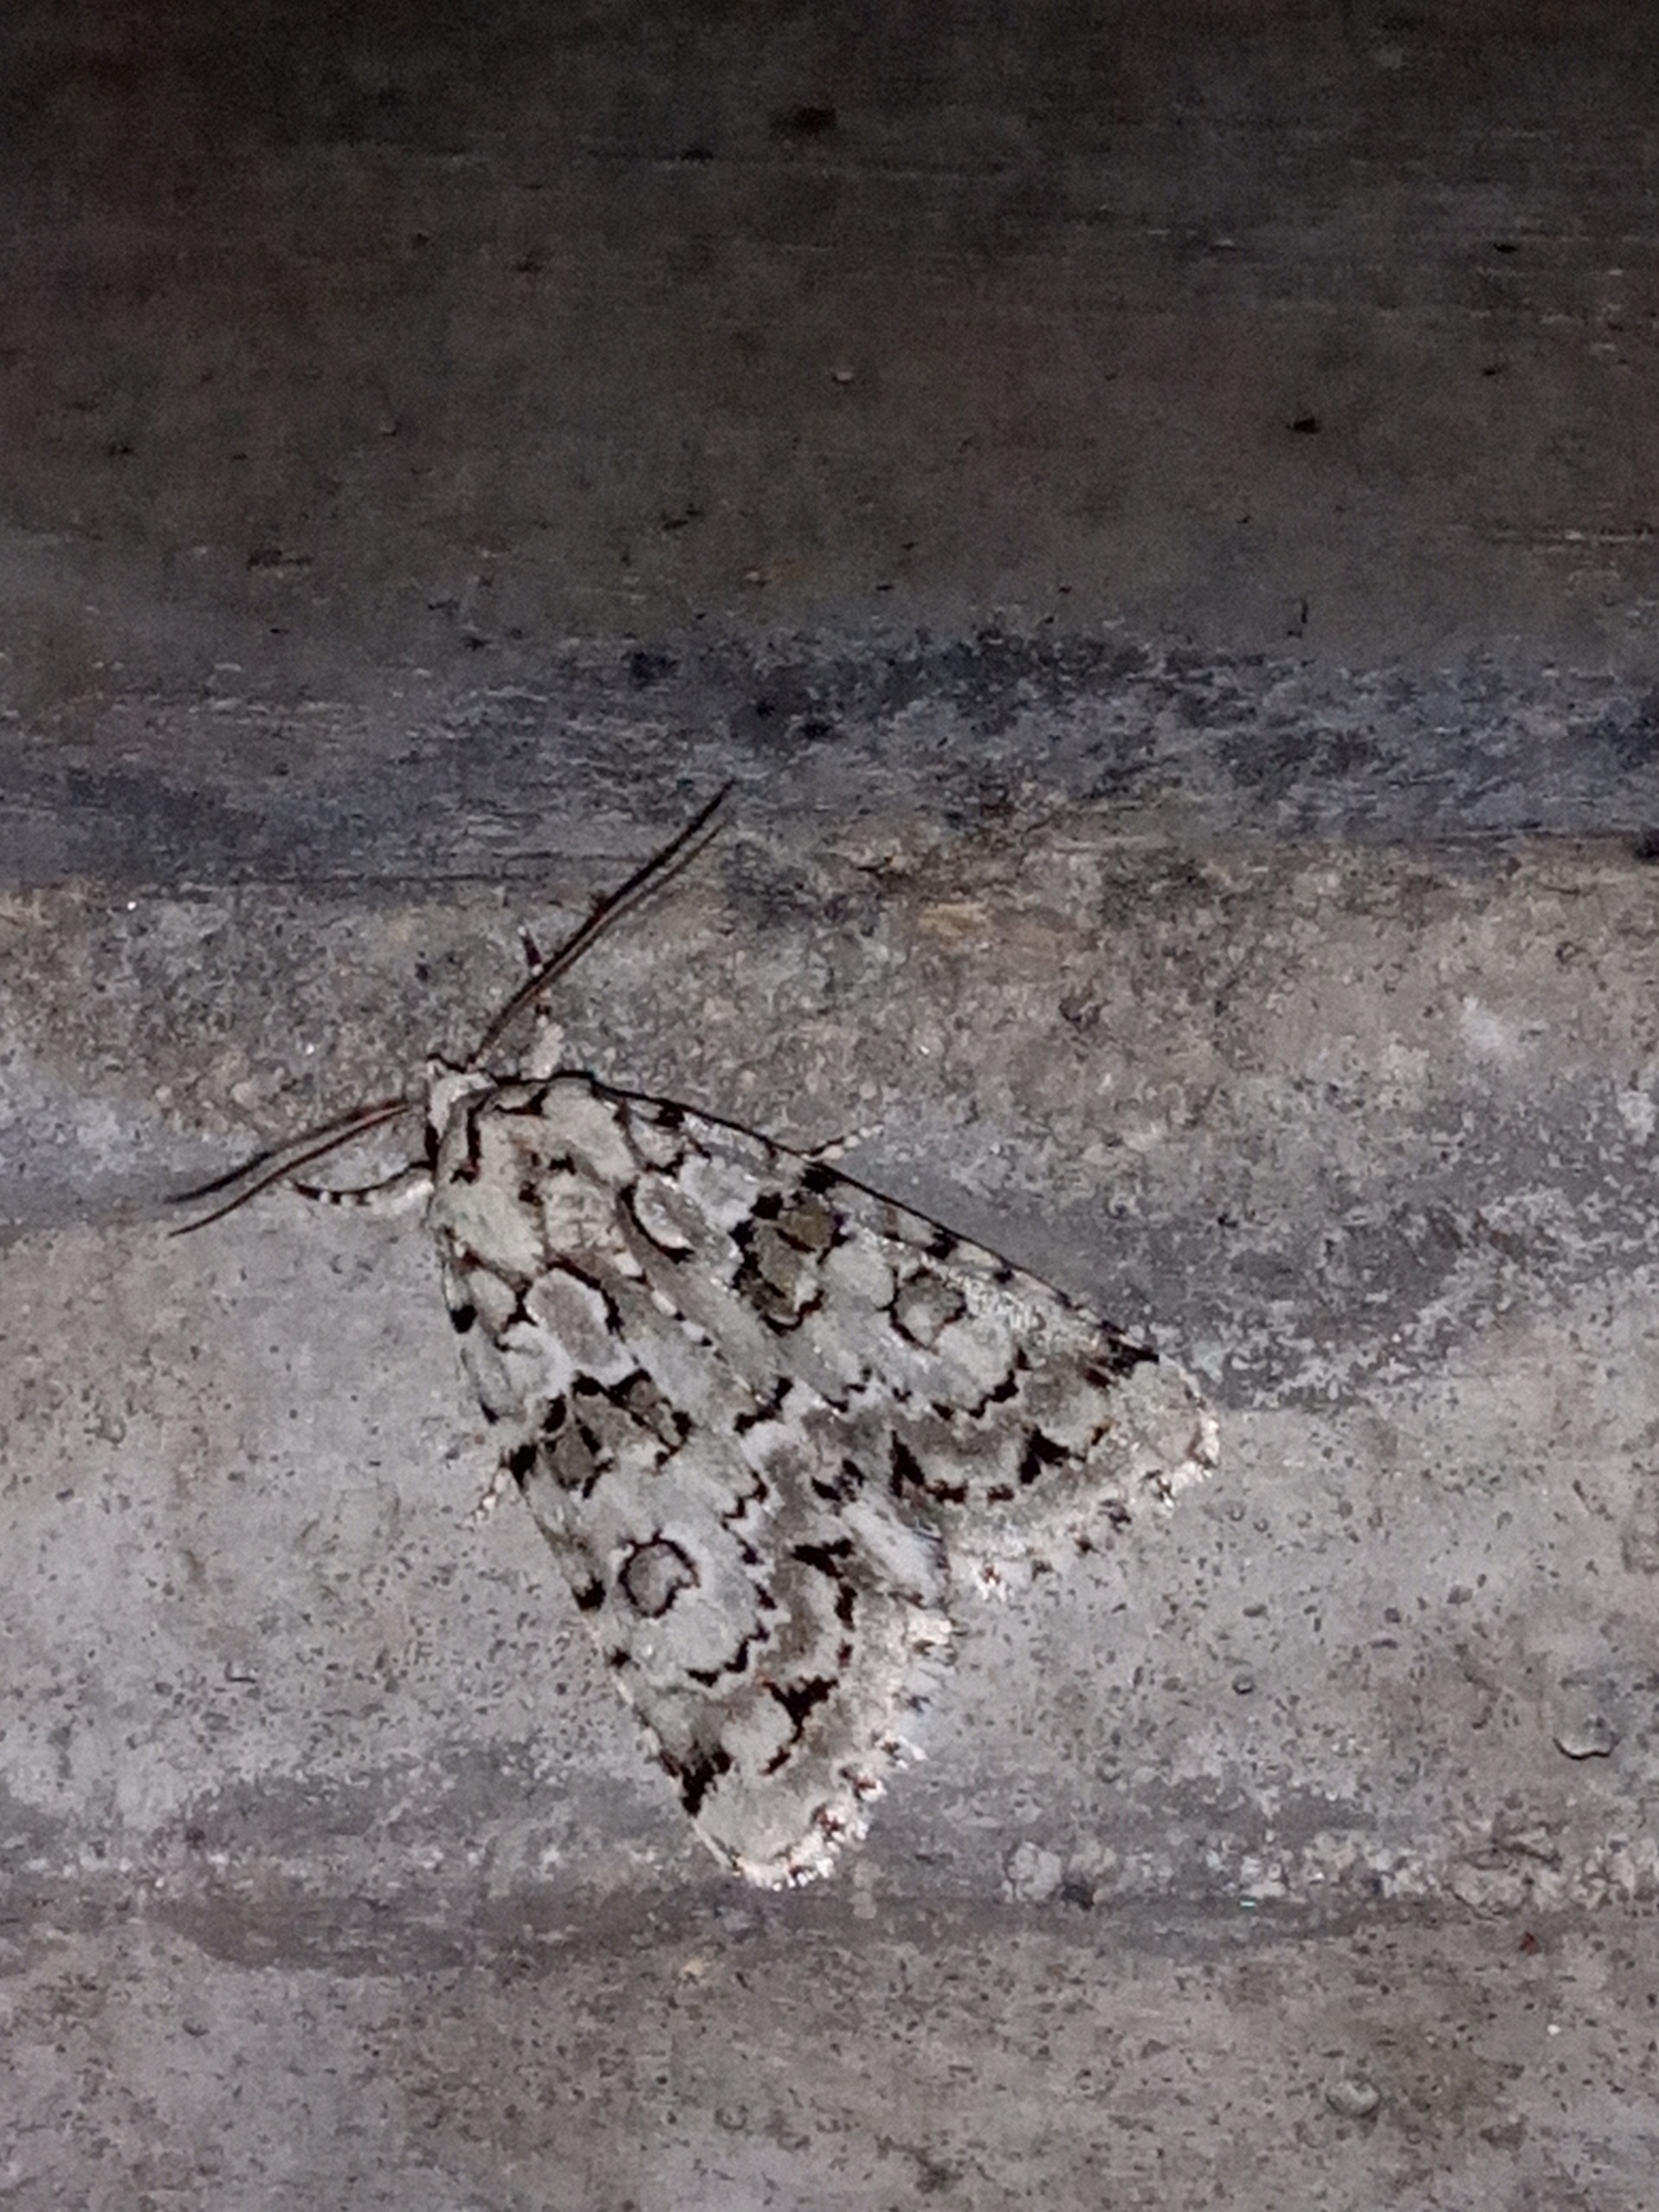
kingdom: Animalia
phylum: Arthropoda
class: Insecta
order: Lepidoptera
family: Noctuidae
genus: Nyctobrya
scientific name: Nyctobrya muralis
